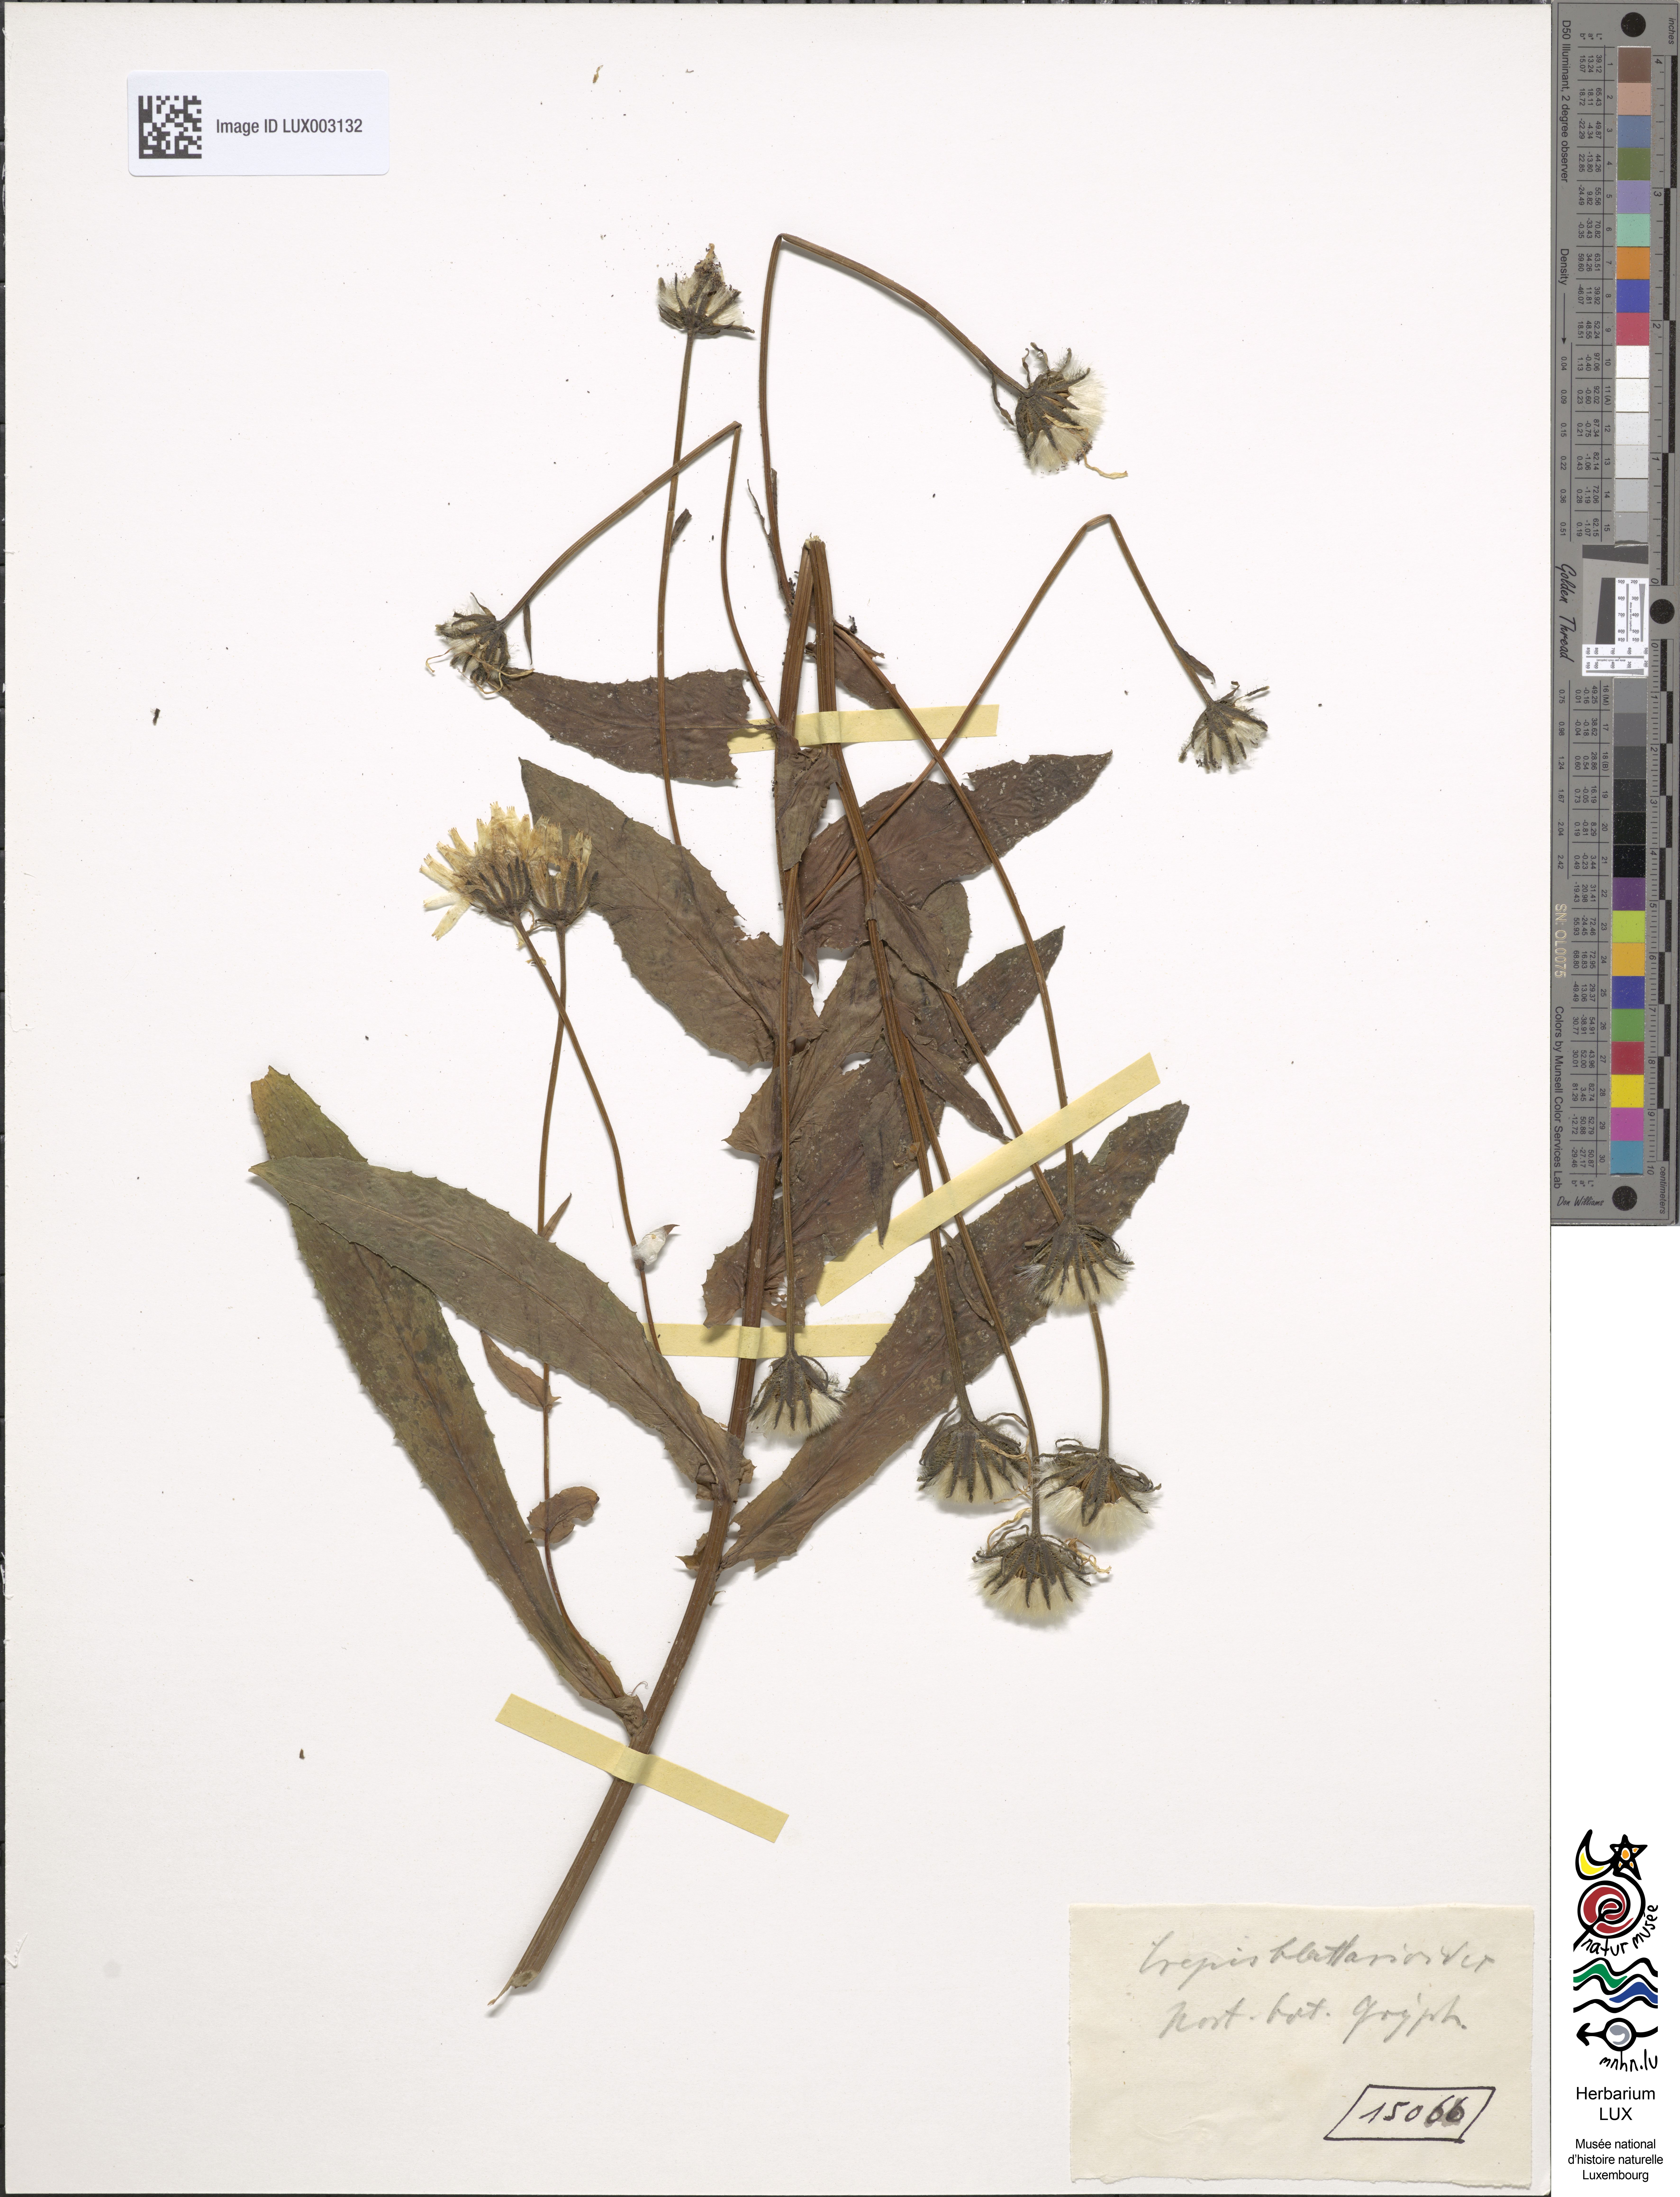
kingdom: Plantae
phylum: Tracheophyta
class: Magnoliopsida
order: Asterales
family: Asteraceae
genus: Crepis
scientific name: Crepis blattarioides
